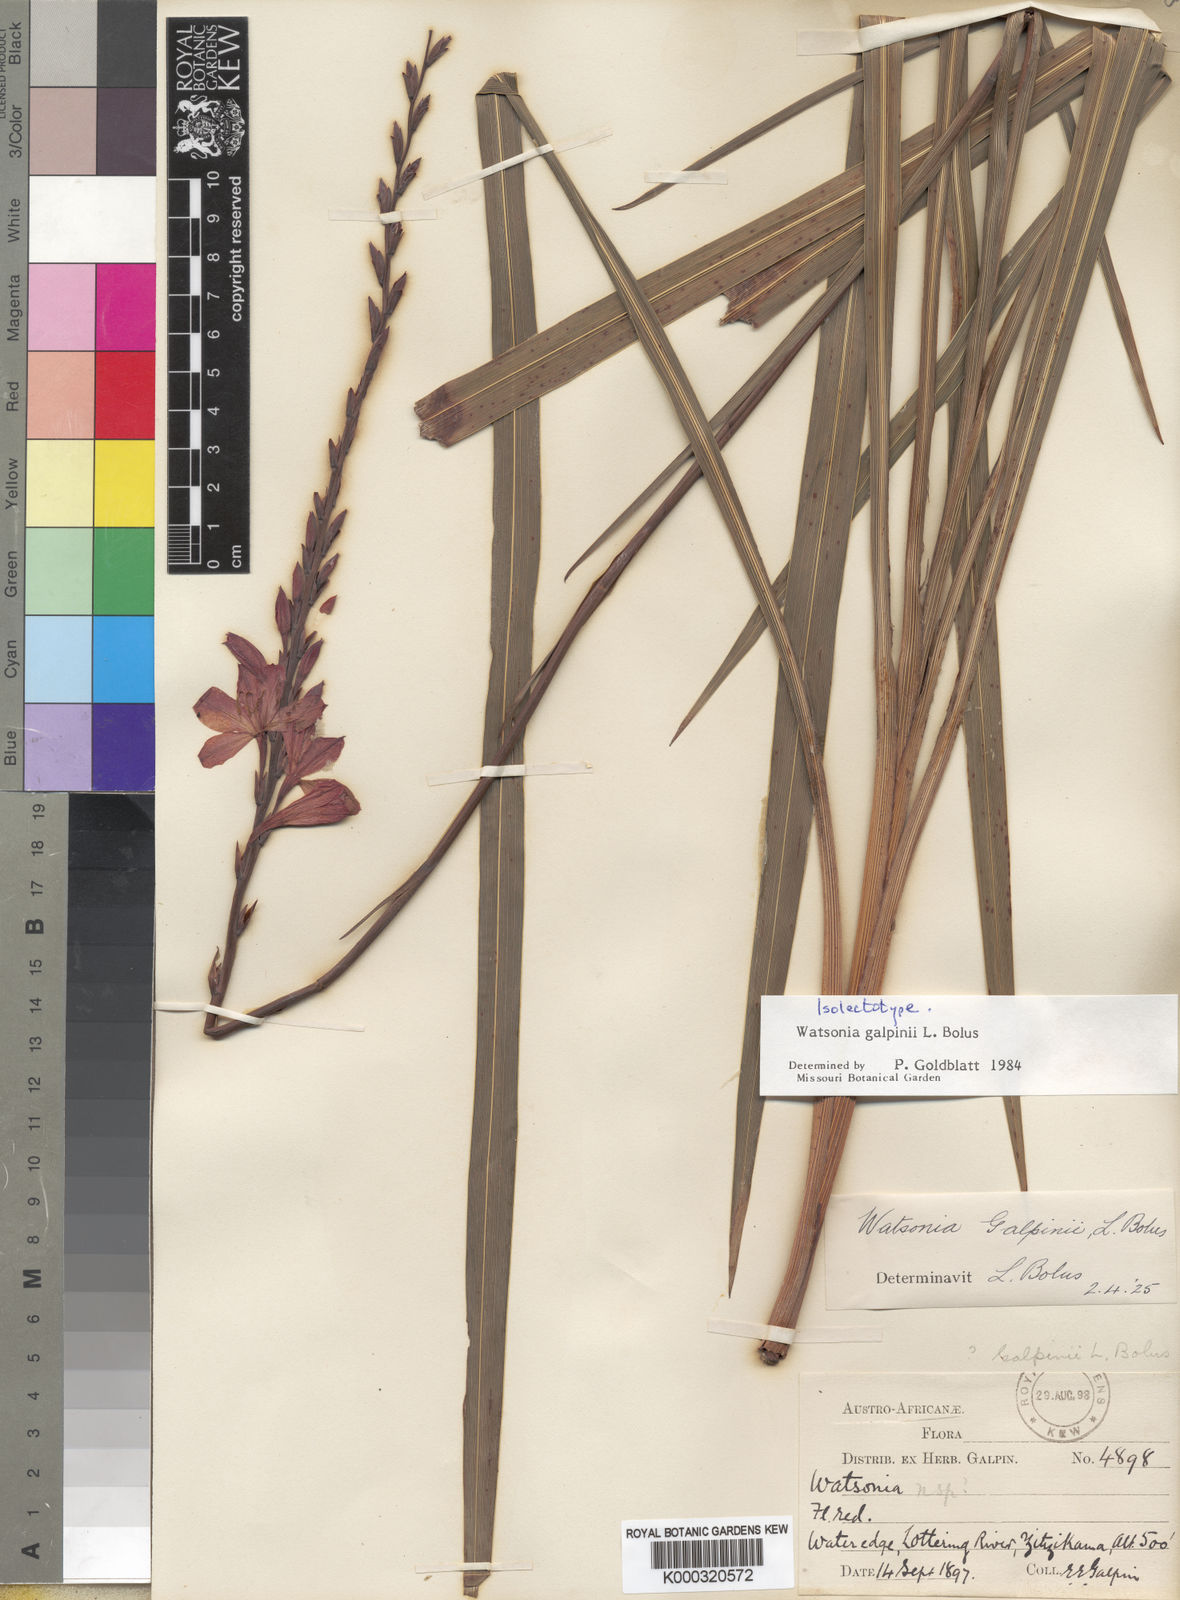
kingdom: Plantae
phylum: Tracheophyta
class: Liliopsida
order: Asparagales
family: Iridaceae
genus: Watsonia
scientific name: Watsonia galpinii
